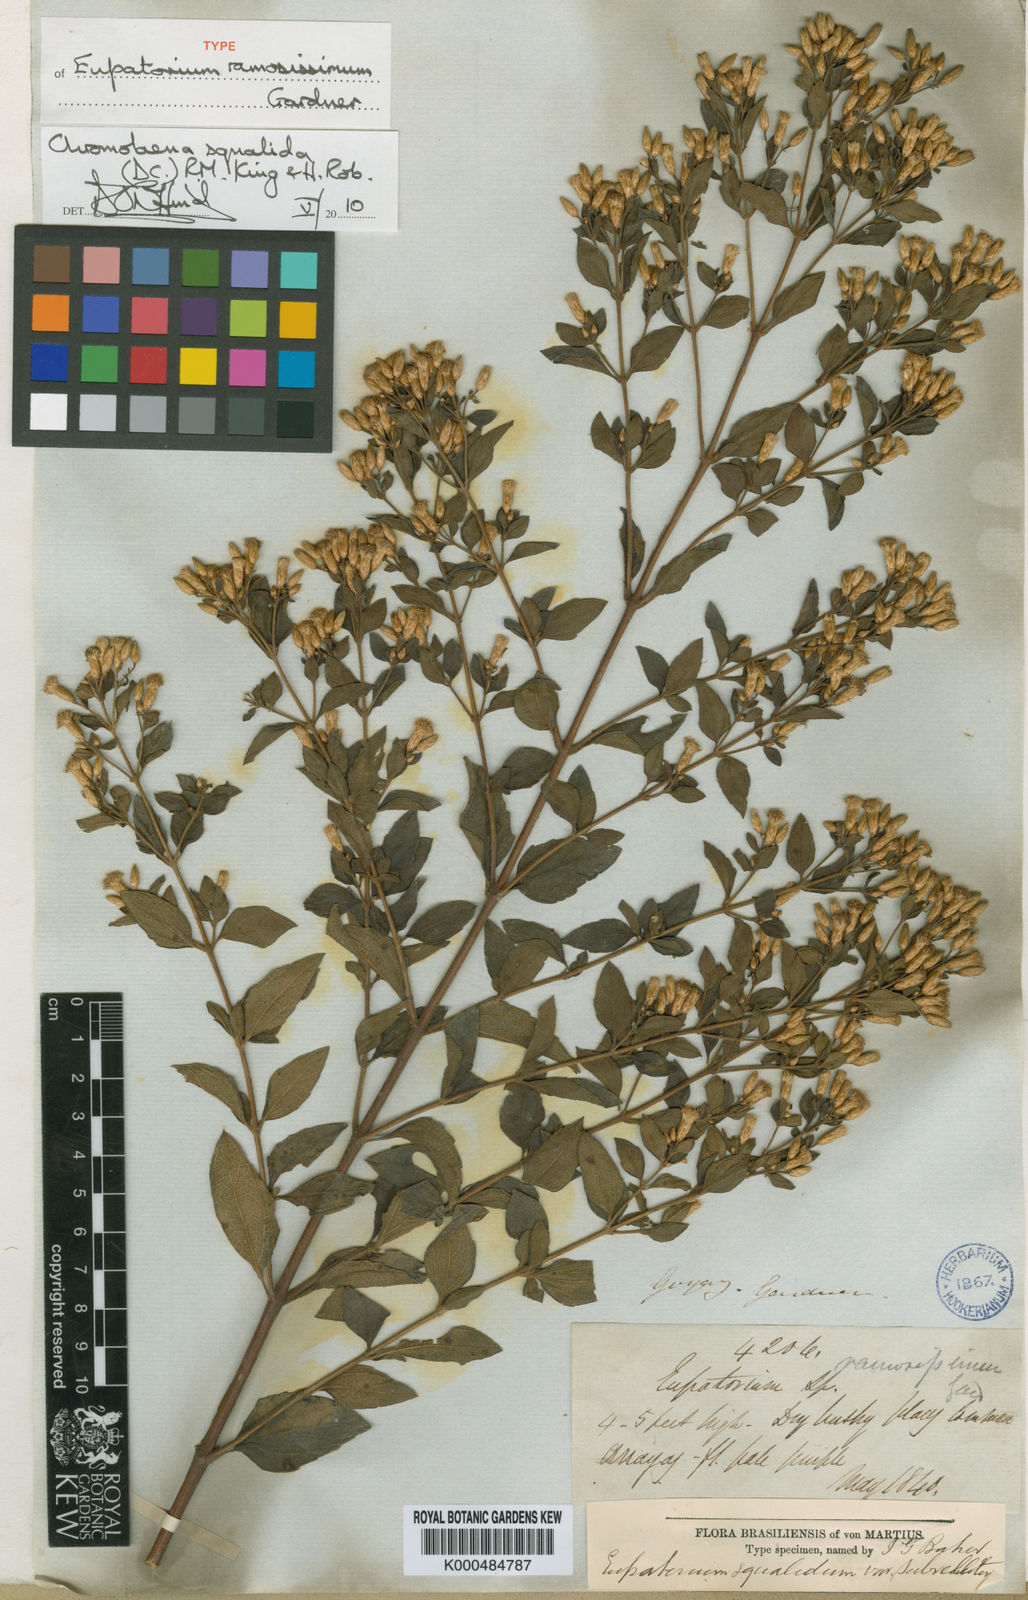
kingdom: Plantae
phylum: Tracheophyta
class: Magnoliopsida
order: Asterales
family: Asteraceae
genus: Chromolaena
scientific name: Chromolaena squalida
